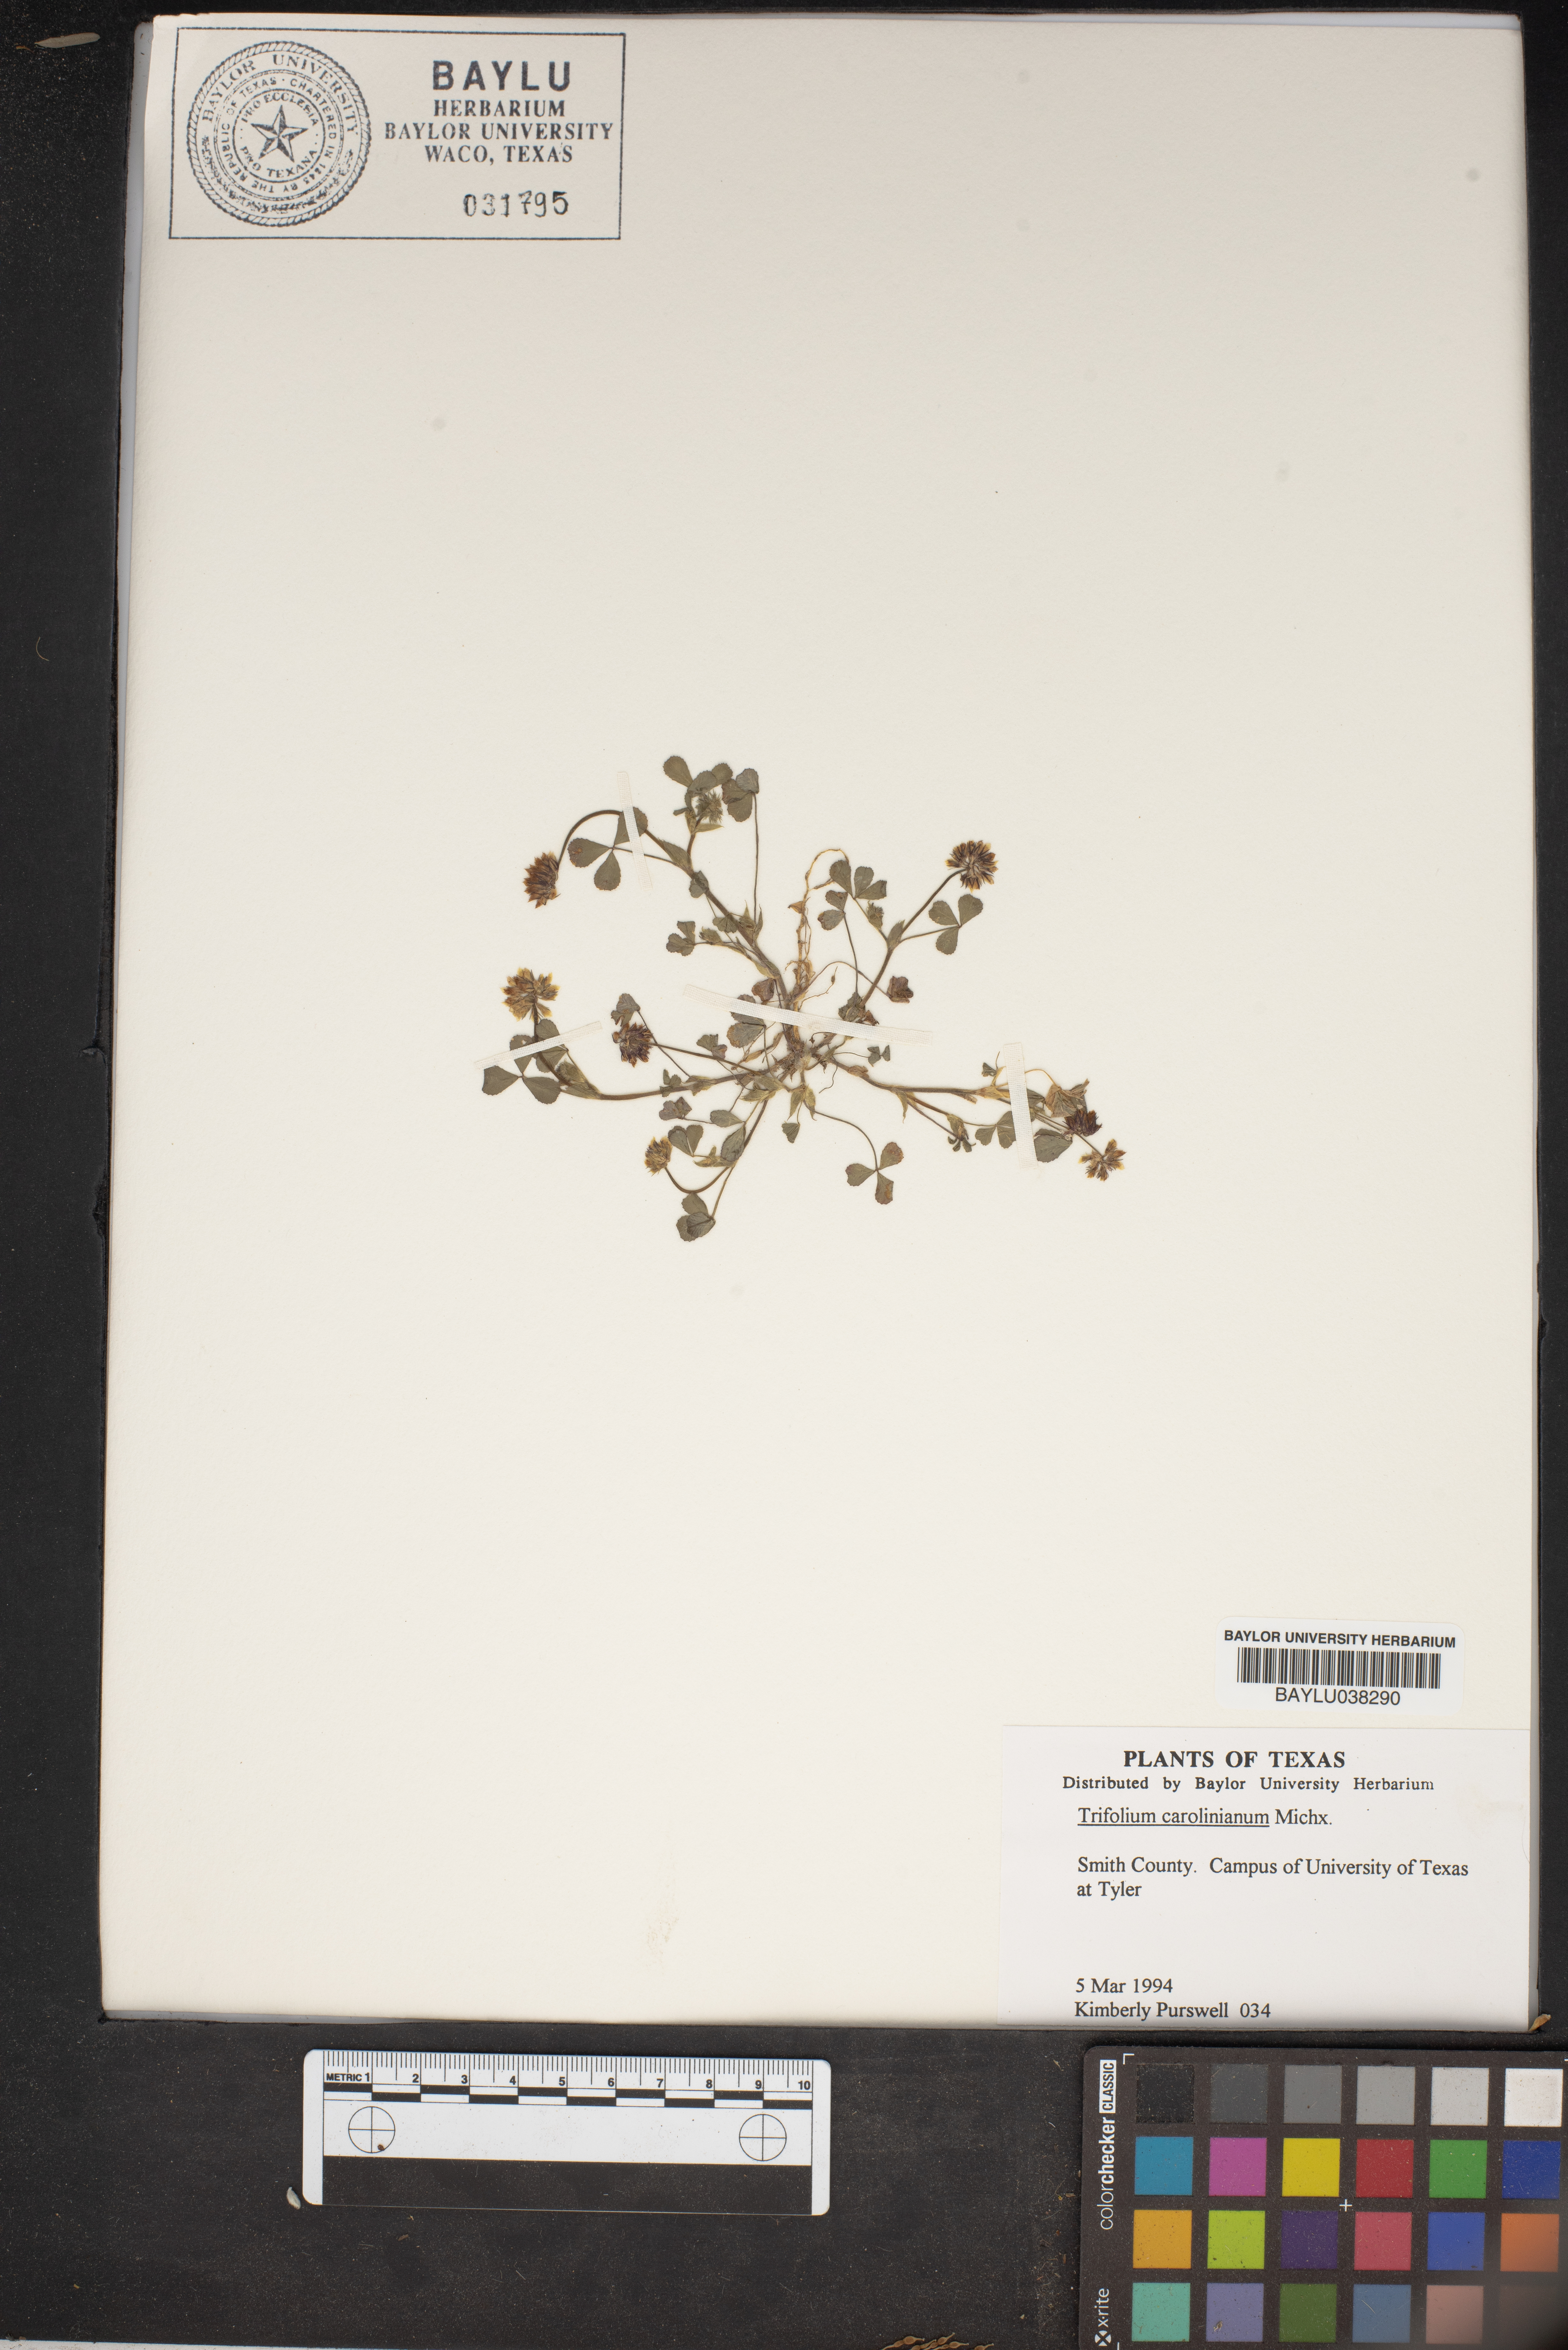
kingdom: Plantae
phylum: Tracheophyta
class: Magnoliopsida
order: Fabales
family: Fabaceae
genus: Trifolium
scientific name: Trifolium carolinianum
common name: Wild white clover
